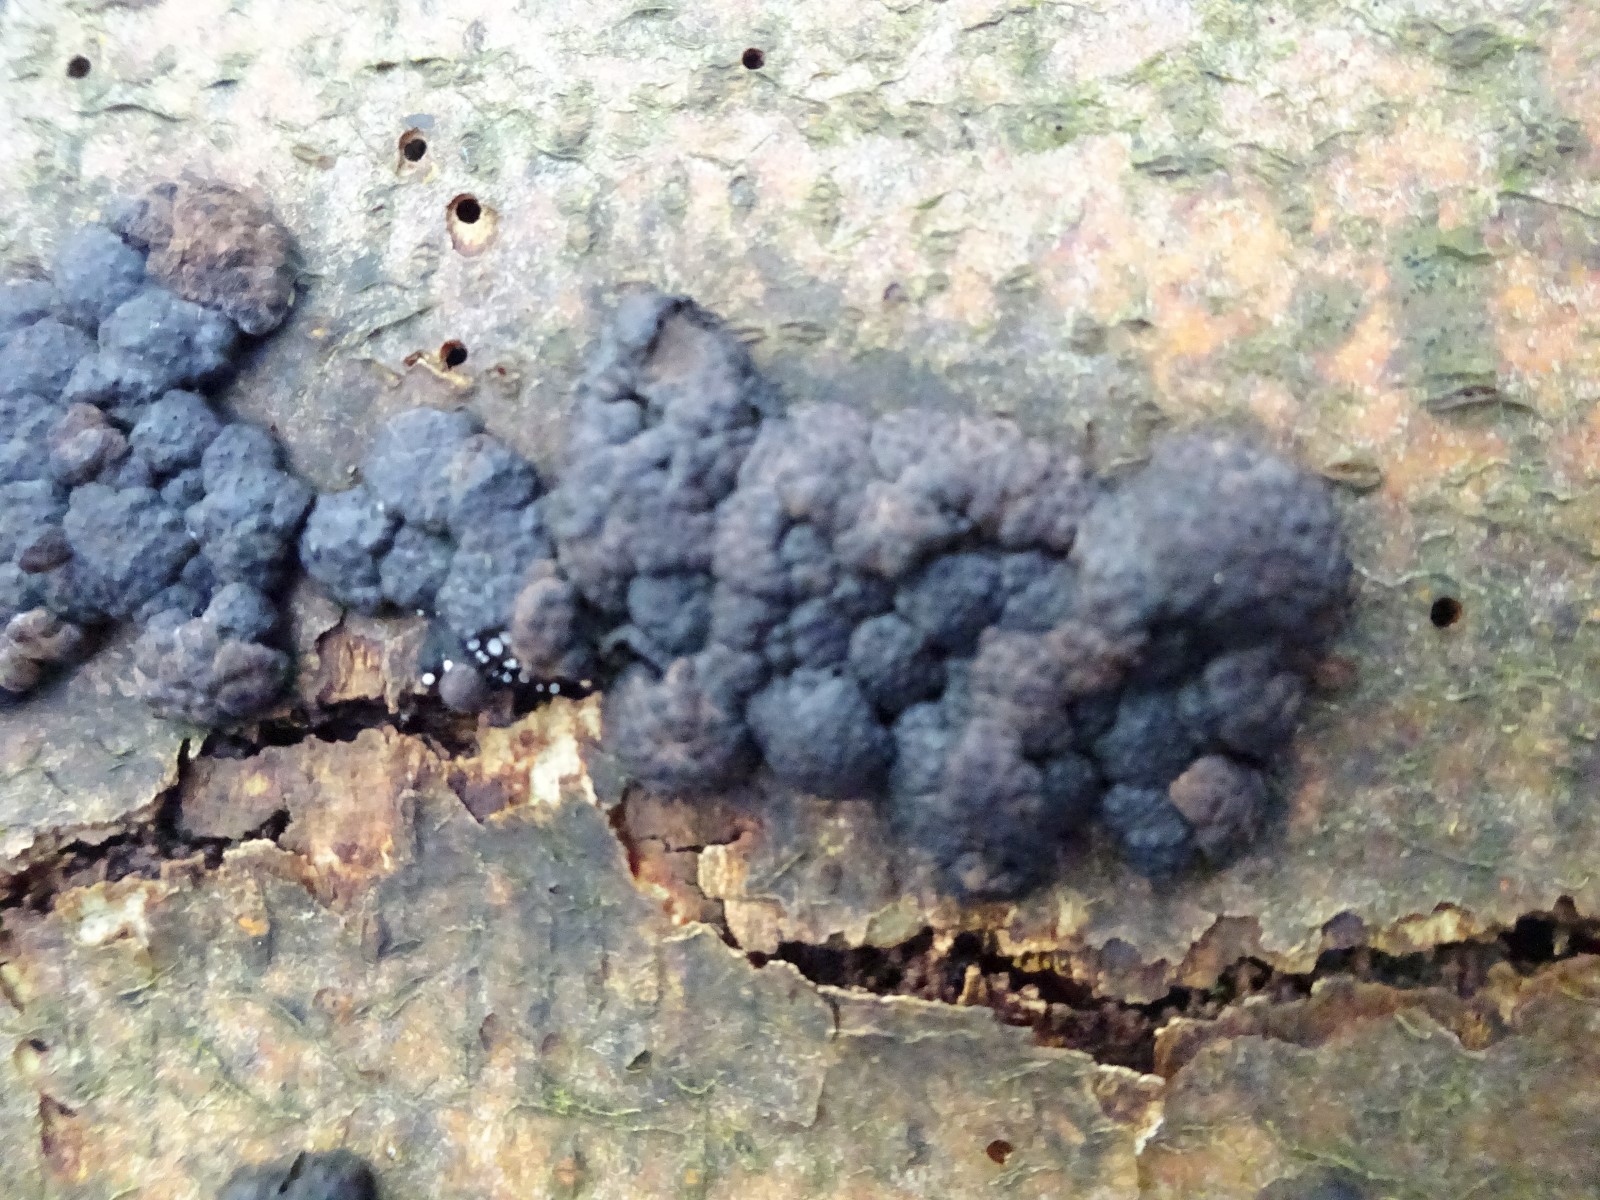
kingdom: Fungi
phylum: Ascomycota
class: Sordariomycetes
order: Xylariales
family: Hypoxylaceae
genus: Jackrogersella
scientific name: Jackrogersella multiformis
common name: foranderlig kulbær
